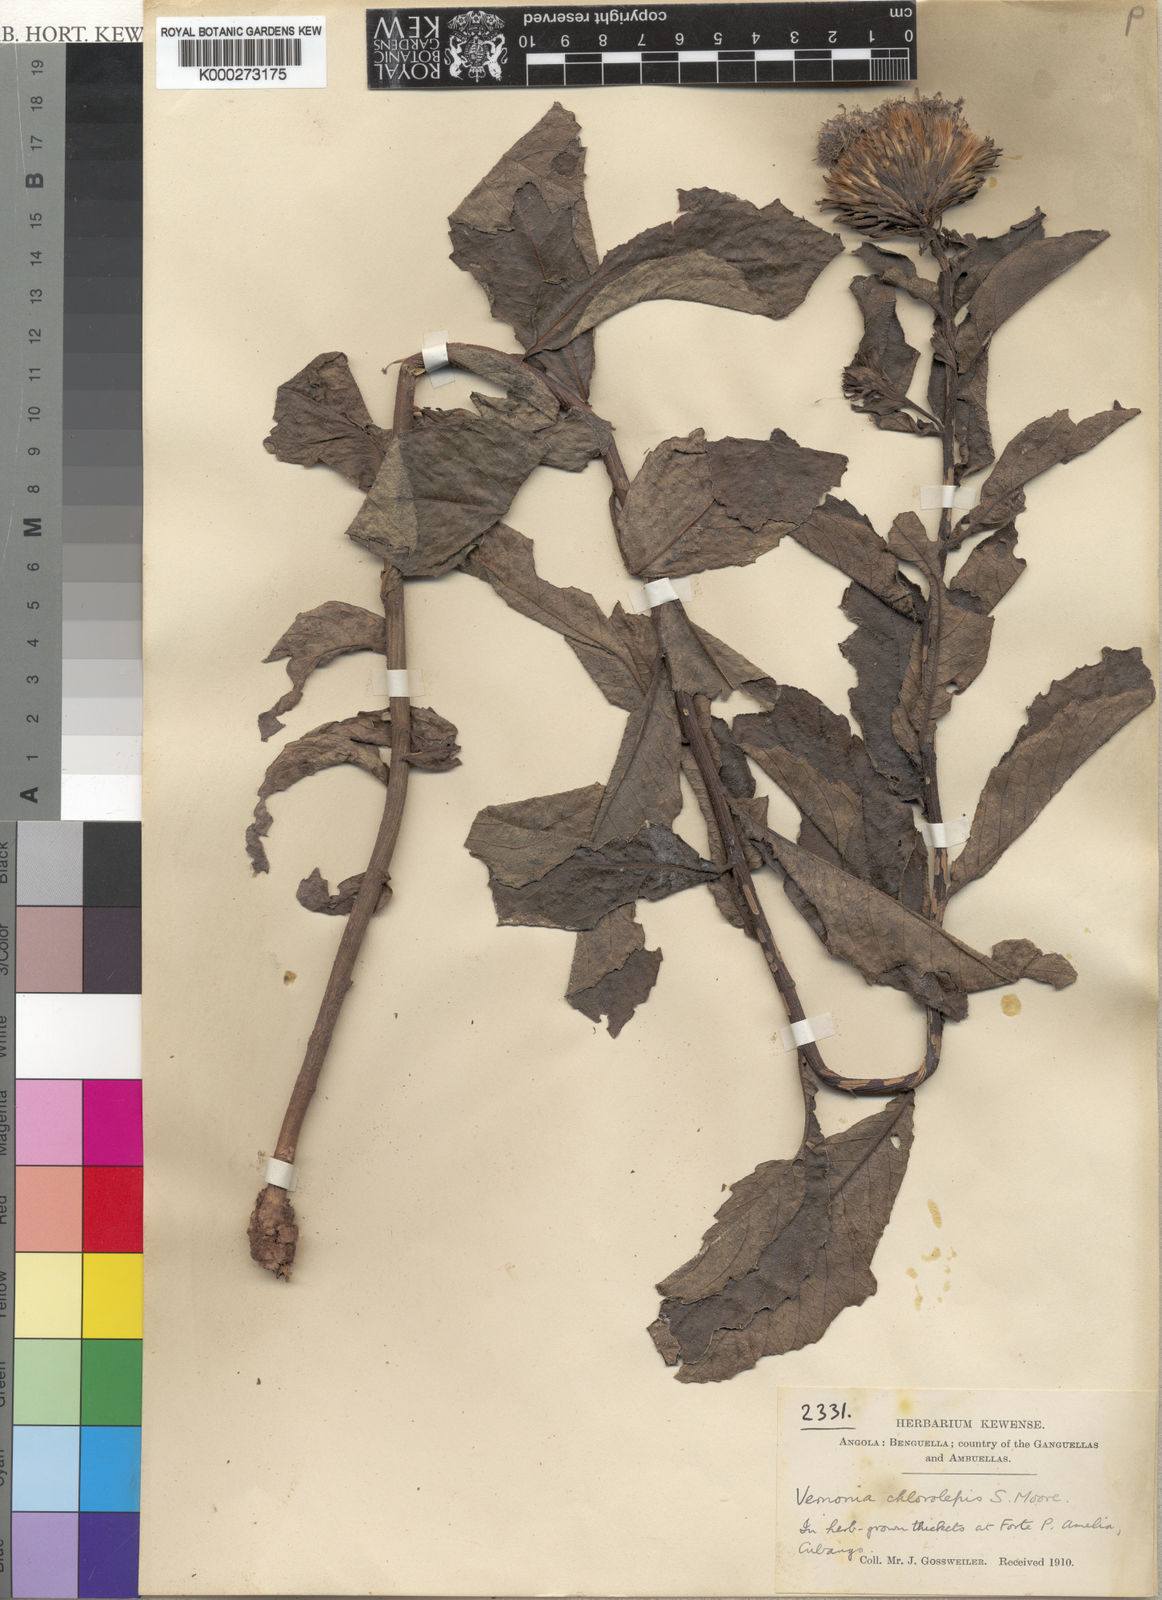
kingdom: Plantae
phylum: Tracheophyta
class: Magnoliopsida
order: Asterales
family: Asteraceae
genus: Vernonia
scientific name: Vernonia verrucosa
